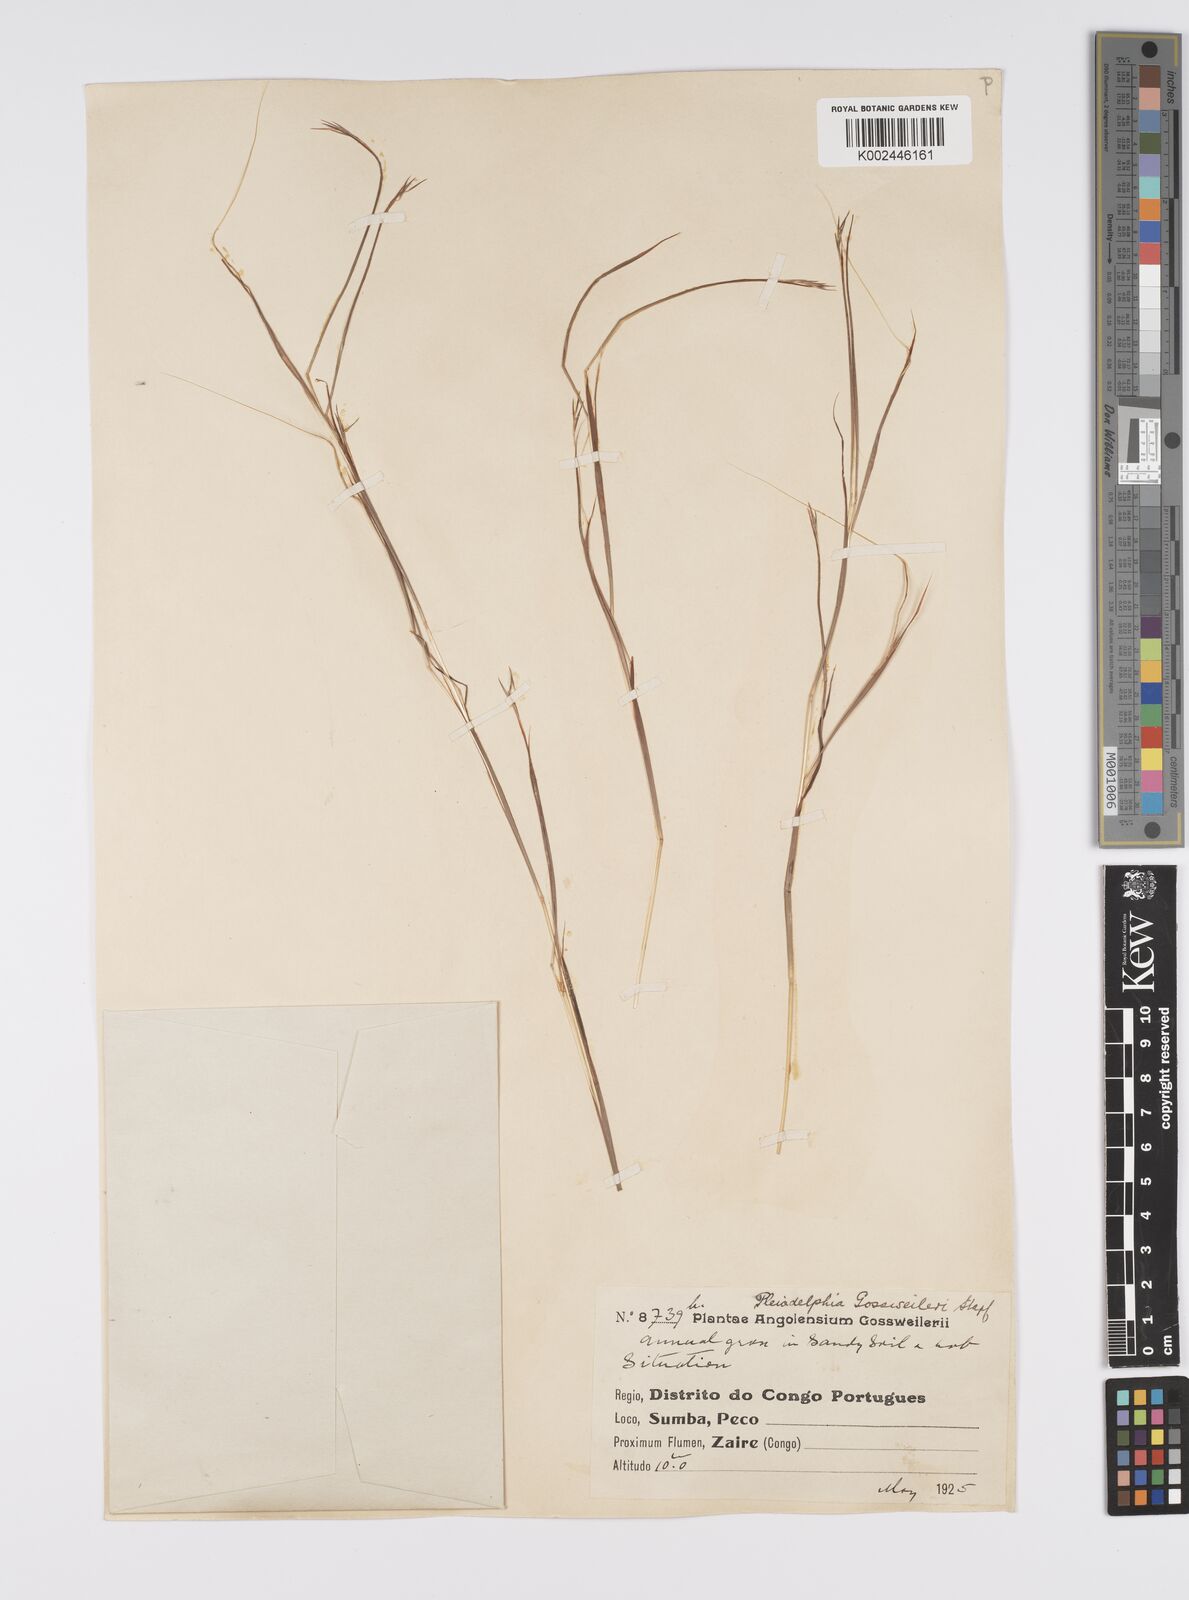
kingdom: Plantae
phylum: Tracheophyta
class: Liliopsida
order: Poales
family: Poaceae
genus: Elymandra
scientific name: Elymandra gossweileri
